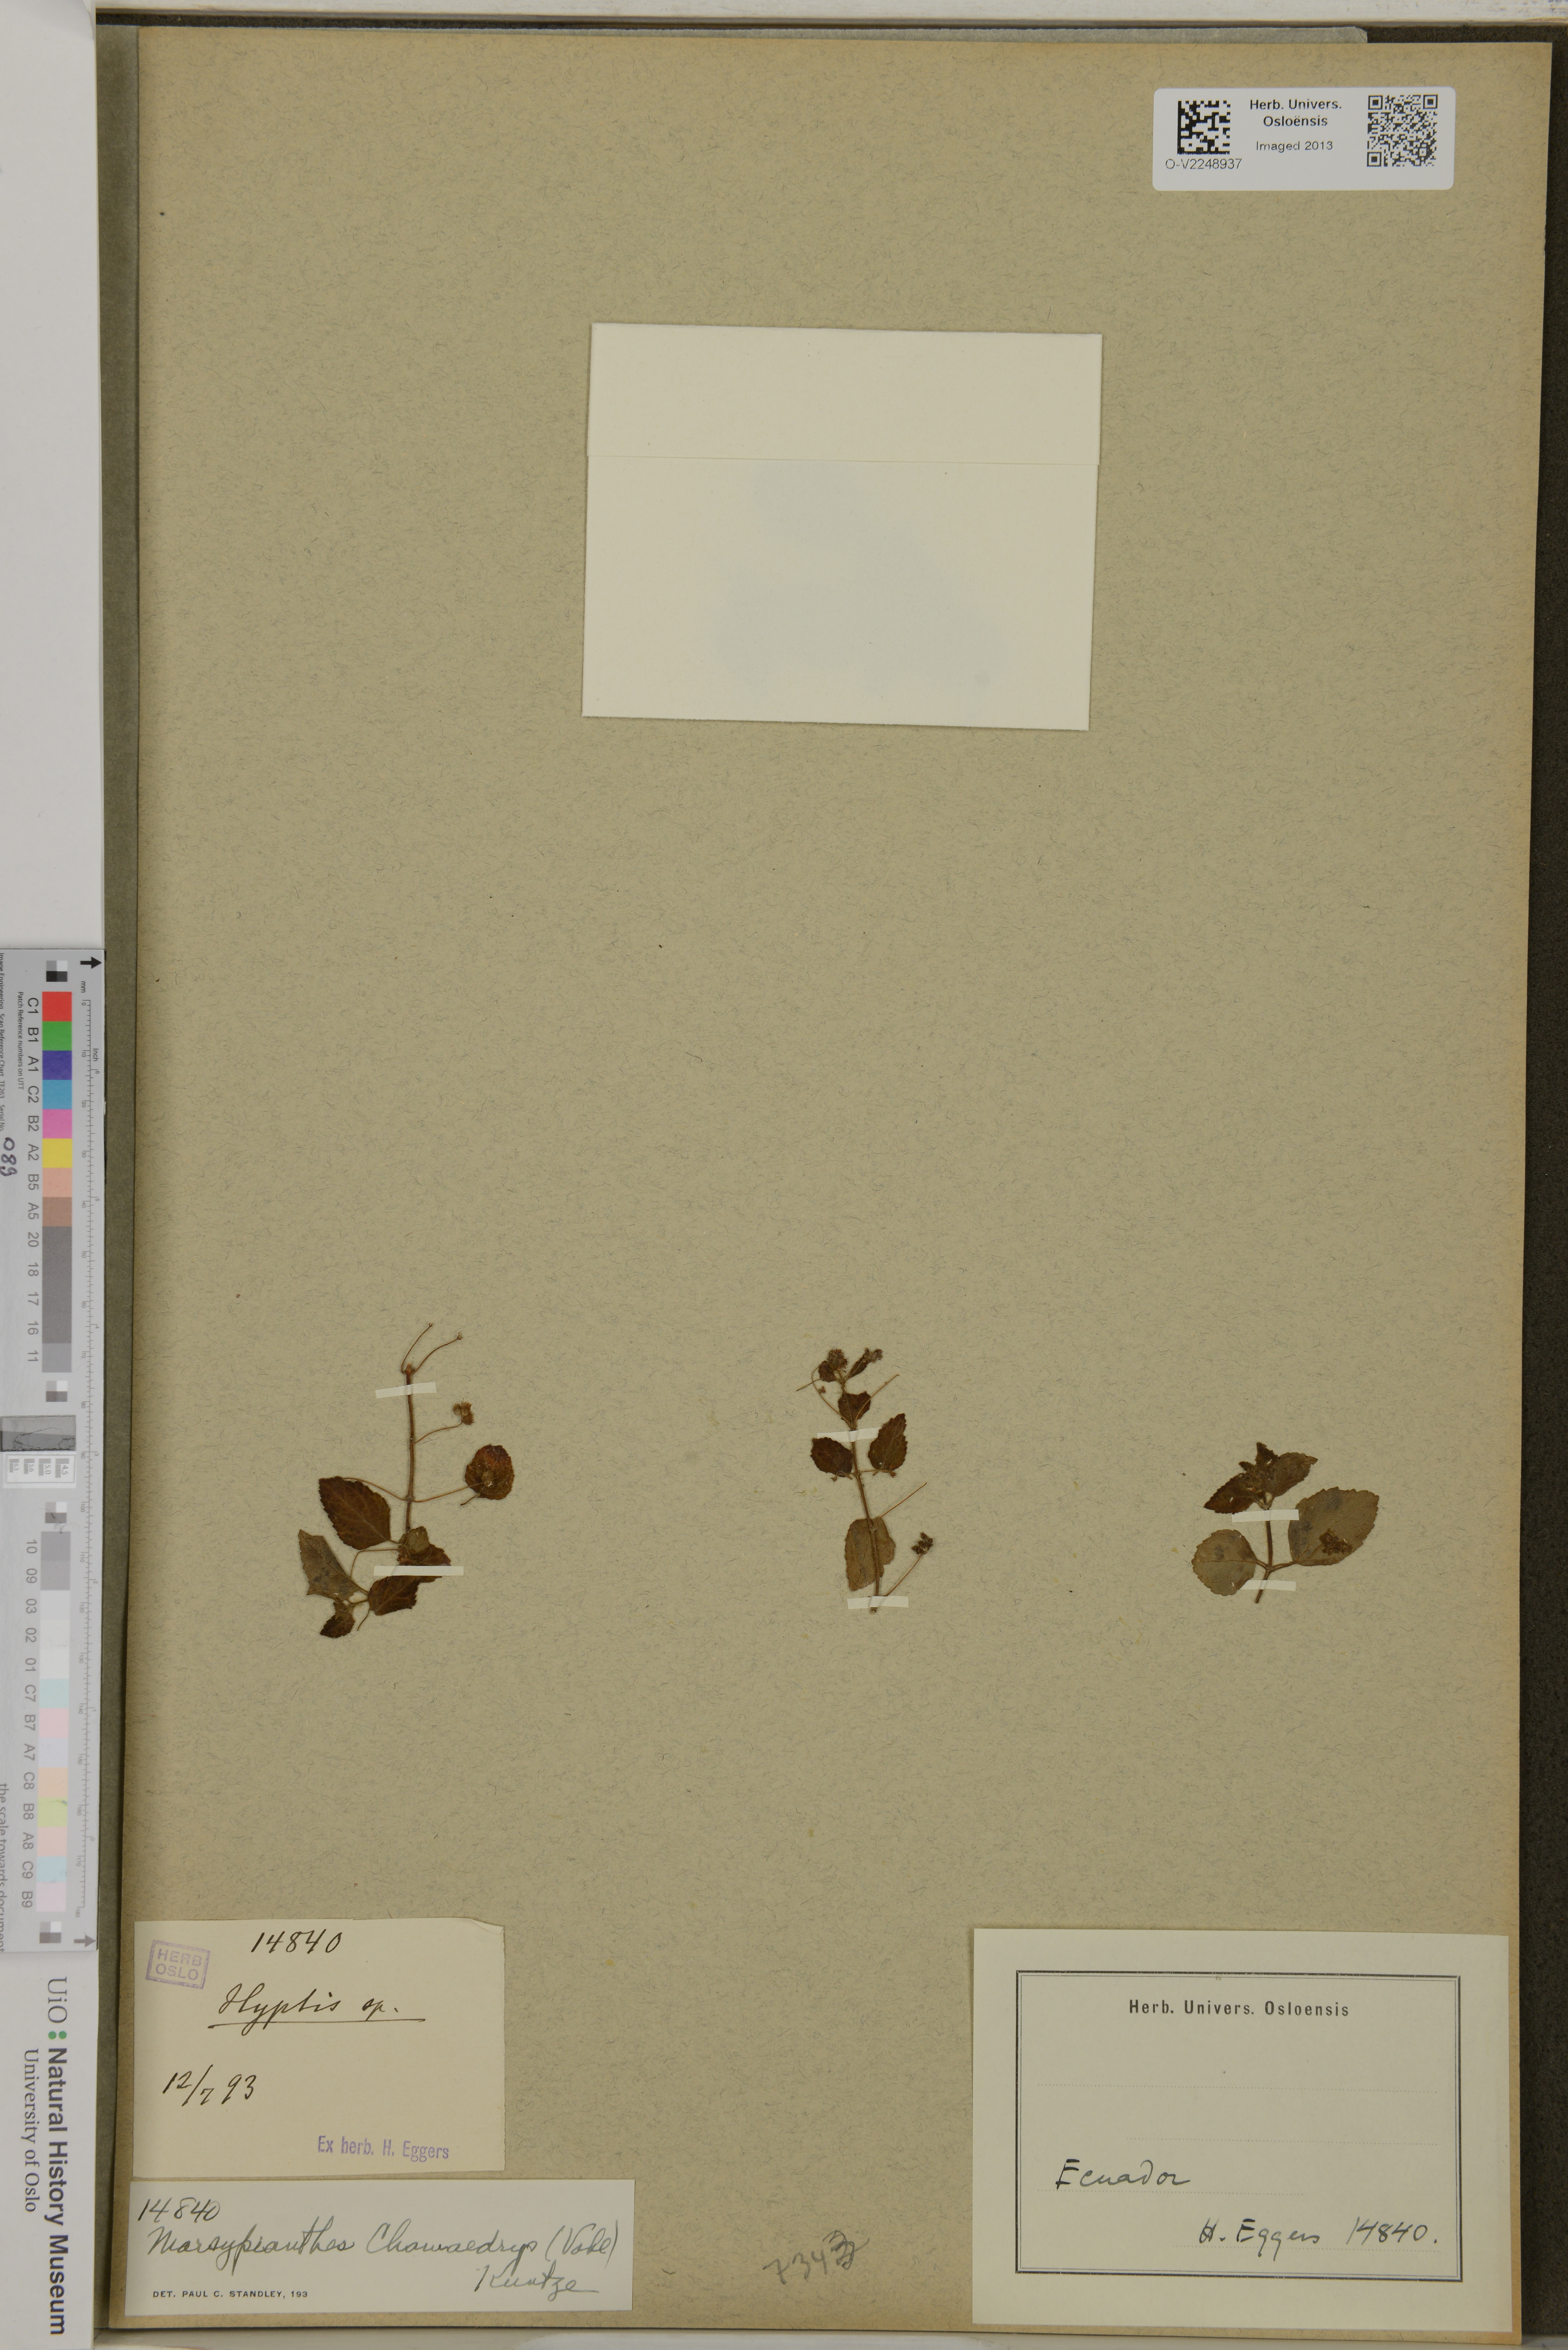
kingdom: Plantae
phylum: Tracheophyta
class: Magnoliopsida
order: Lamiales
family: Lamiaceae
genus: Marsypianthes
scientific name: Marsypianthes chamaedrys
